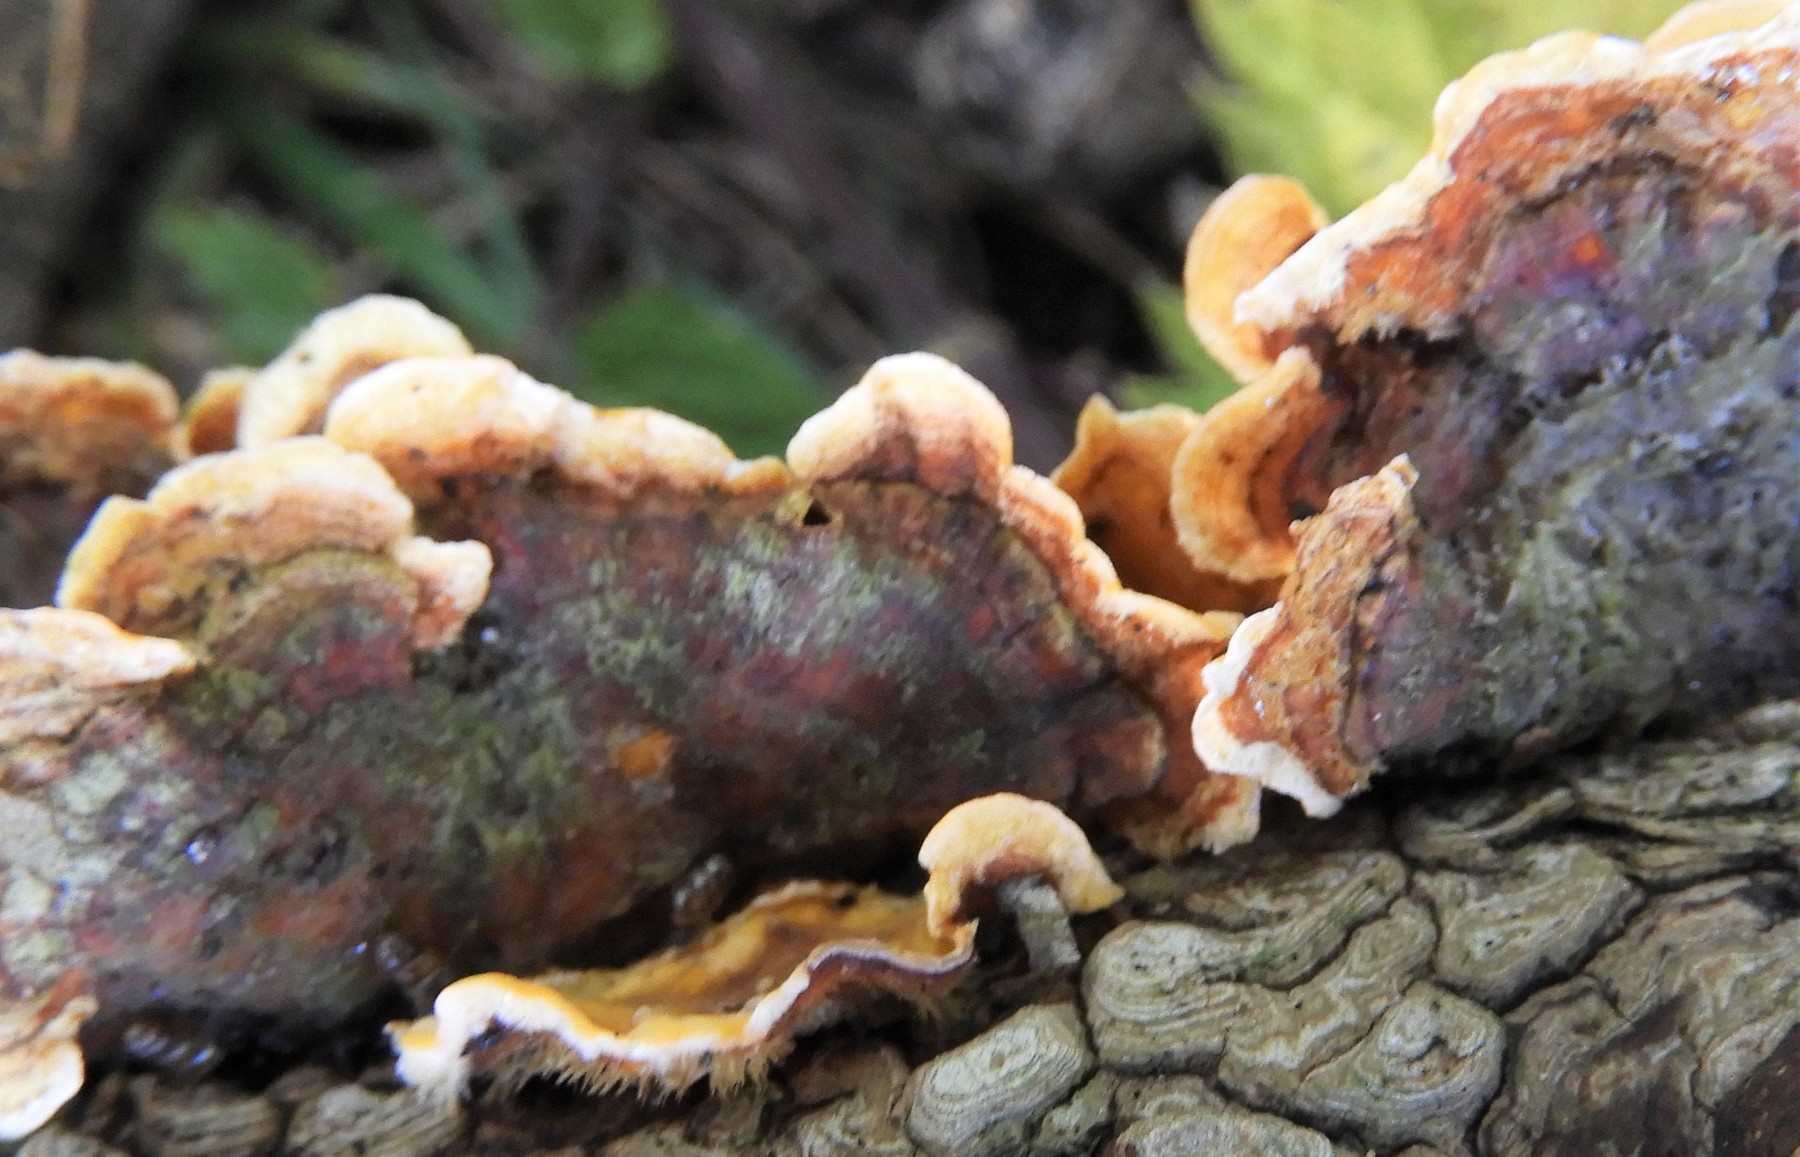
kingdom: Fungi
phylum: Basidiomycota
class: Agaricomycetes
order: Russulales
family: Stereaceae
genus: Stereum
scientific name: Stereum subtomentosum
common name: smuk lædersvamp
